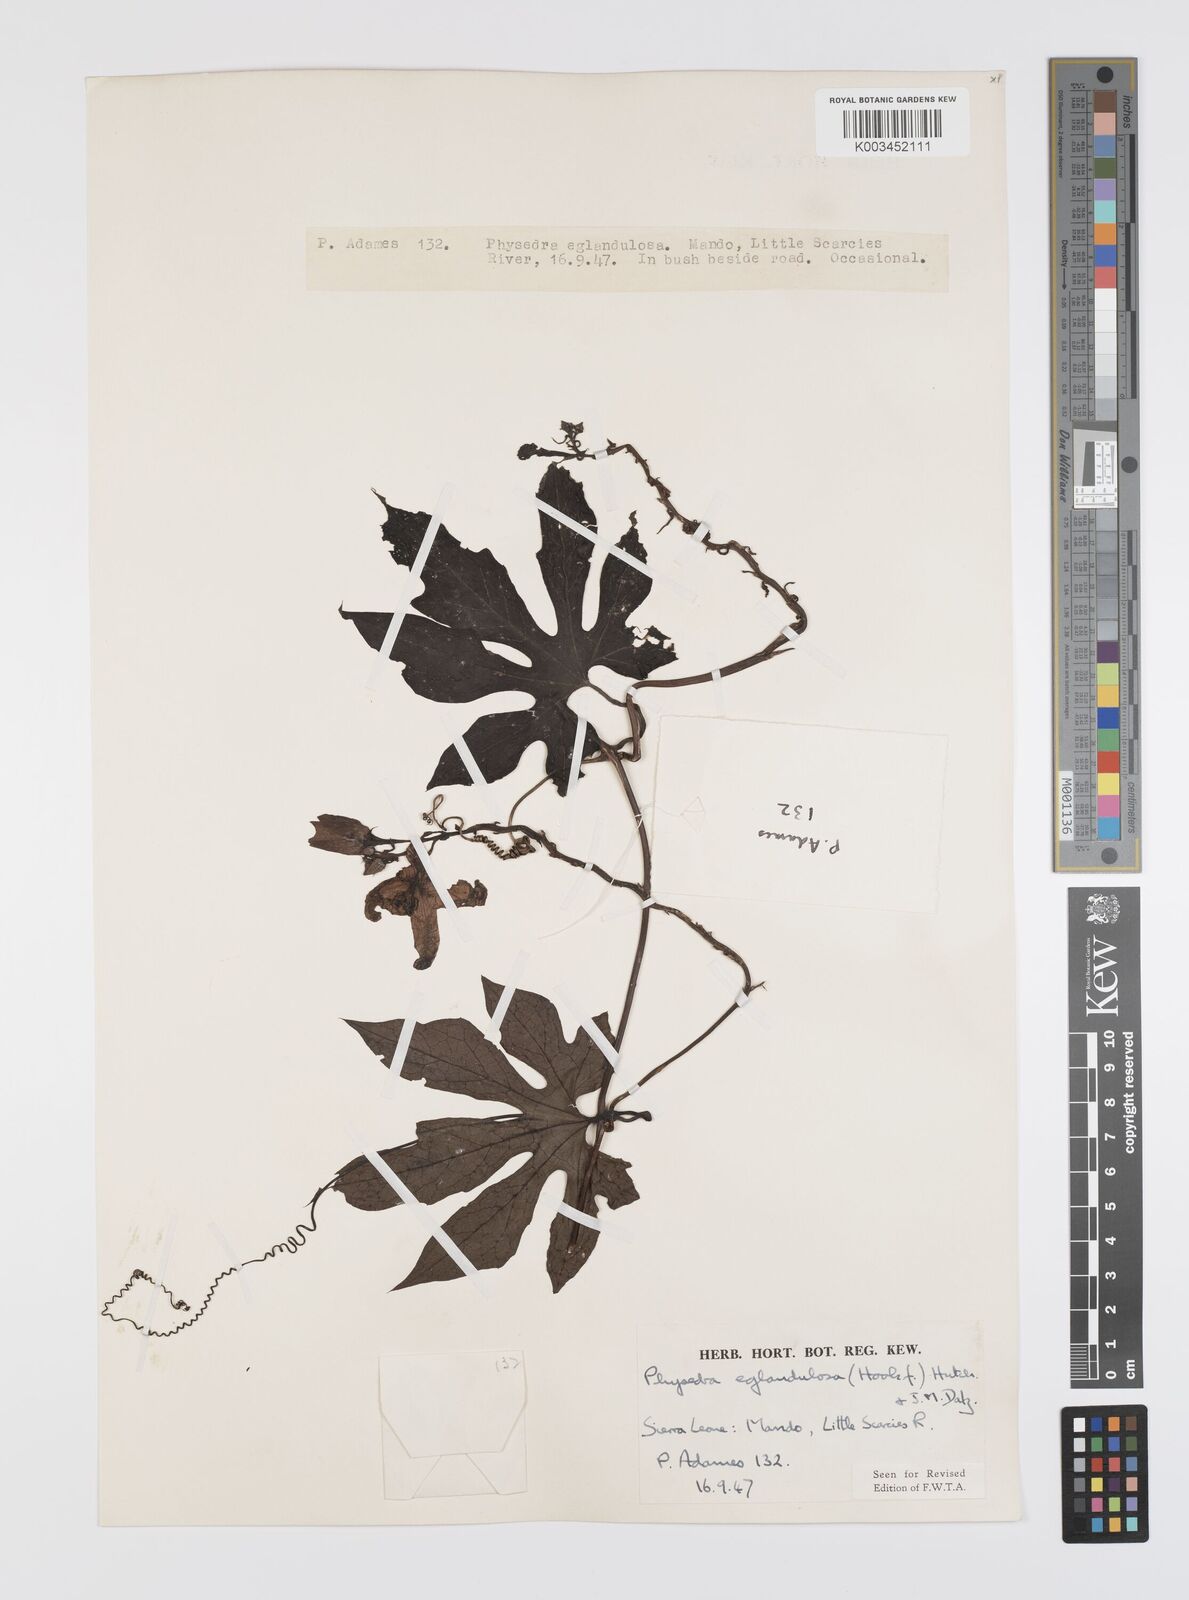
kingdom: Plantae
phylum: Tracheophyta
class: Magnoliopsida
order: Cucurbitales
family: Cucurbitaceae
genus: Ruthalicia
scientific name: Ruthalicia eglandulosa
